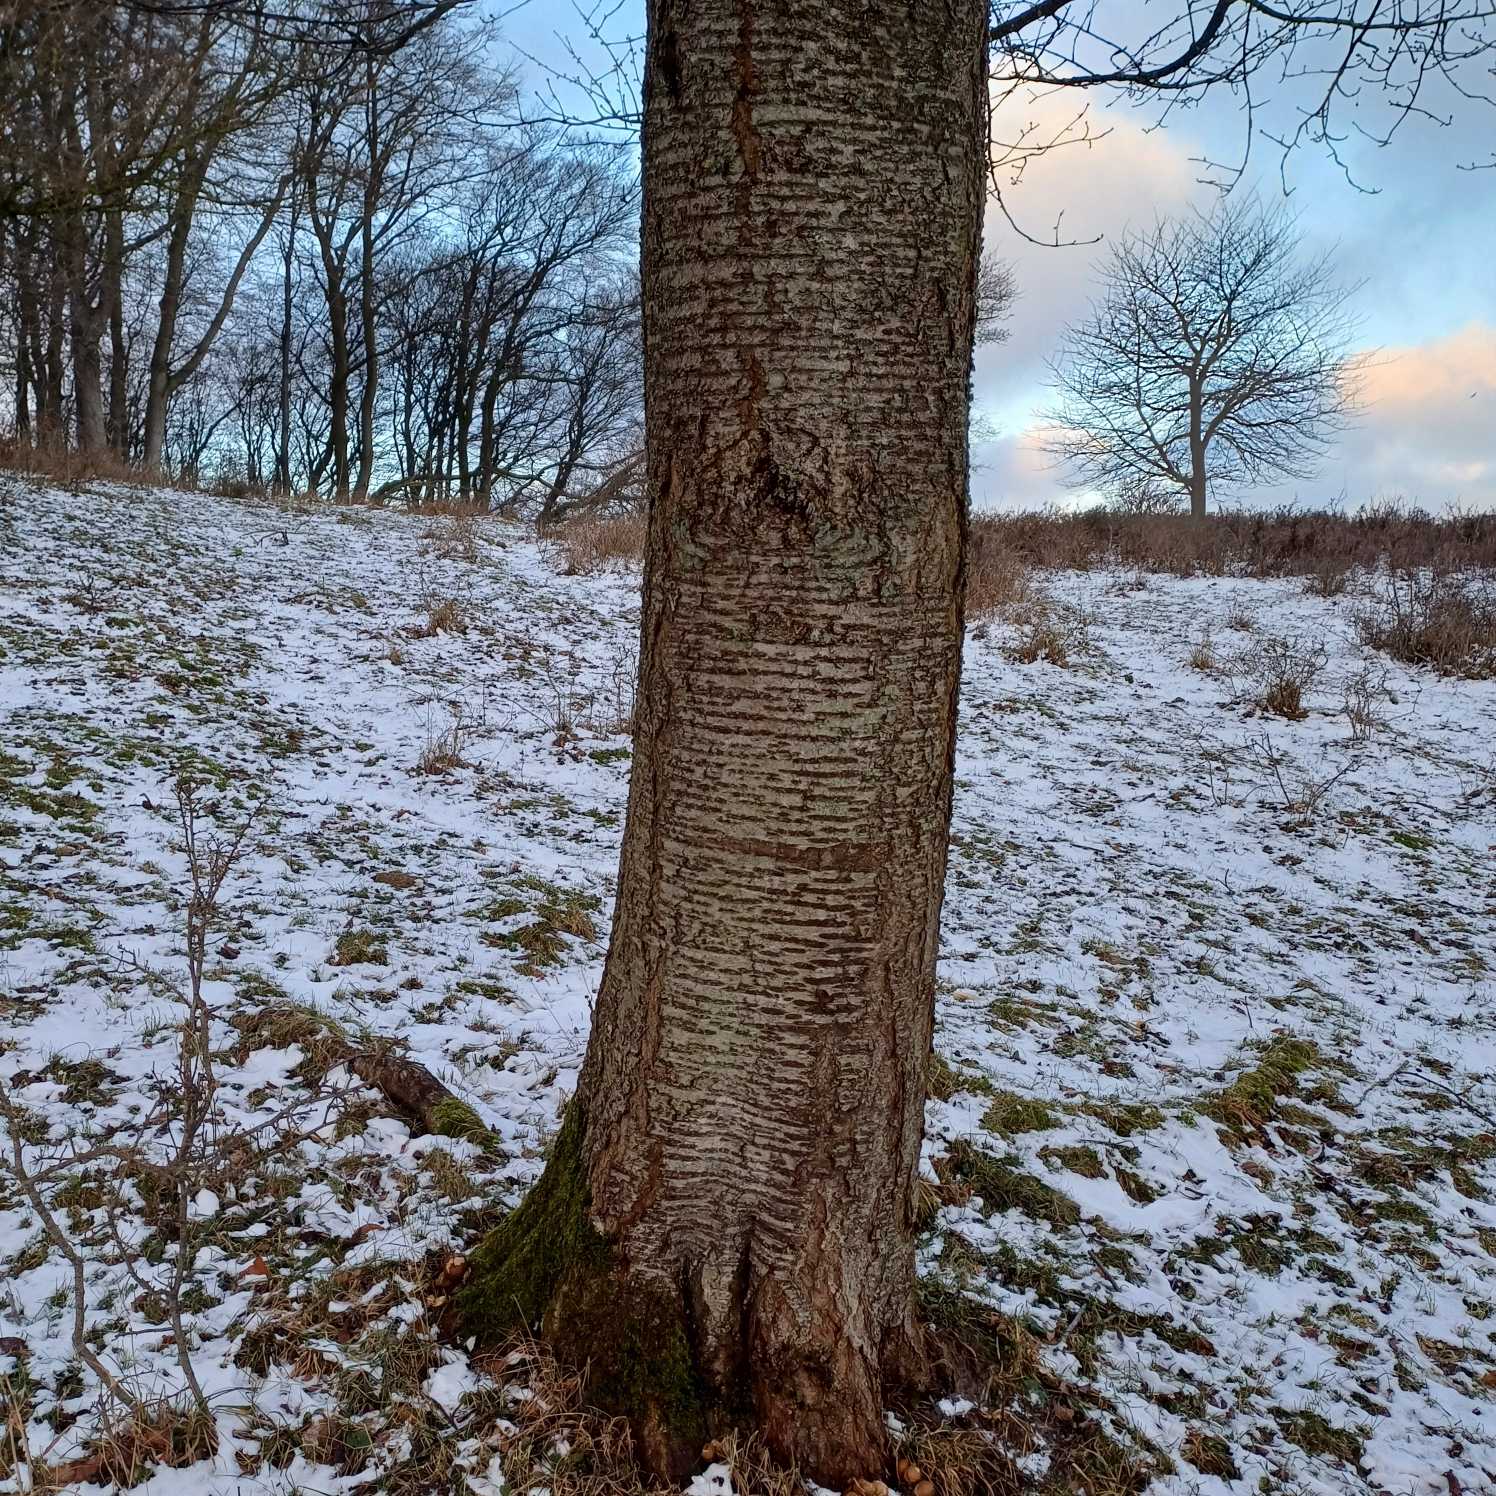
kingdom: Plantae
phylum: Tracheophyta
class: Magnoliopsida
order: Rosales
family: Rosaceae
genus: Prunus
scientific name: Prunus avium
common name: Fugle-kirsebær
